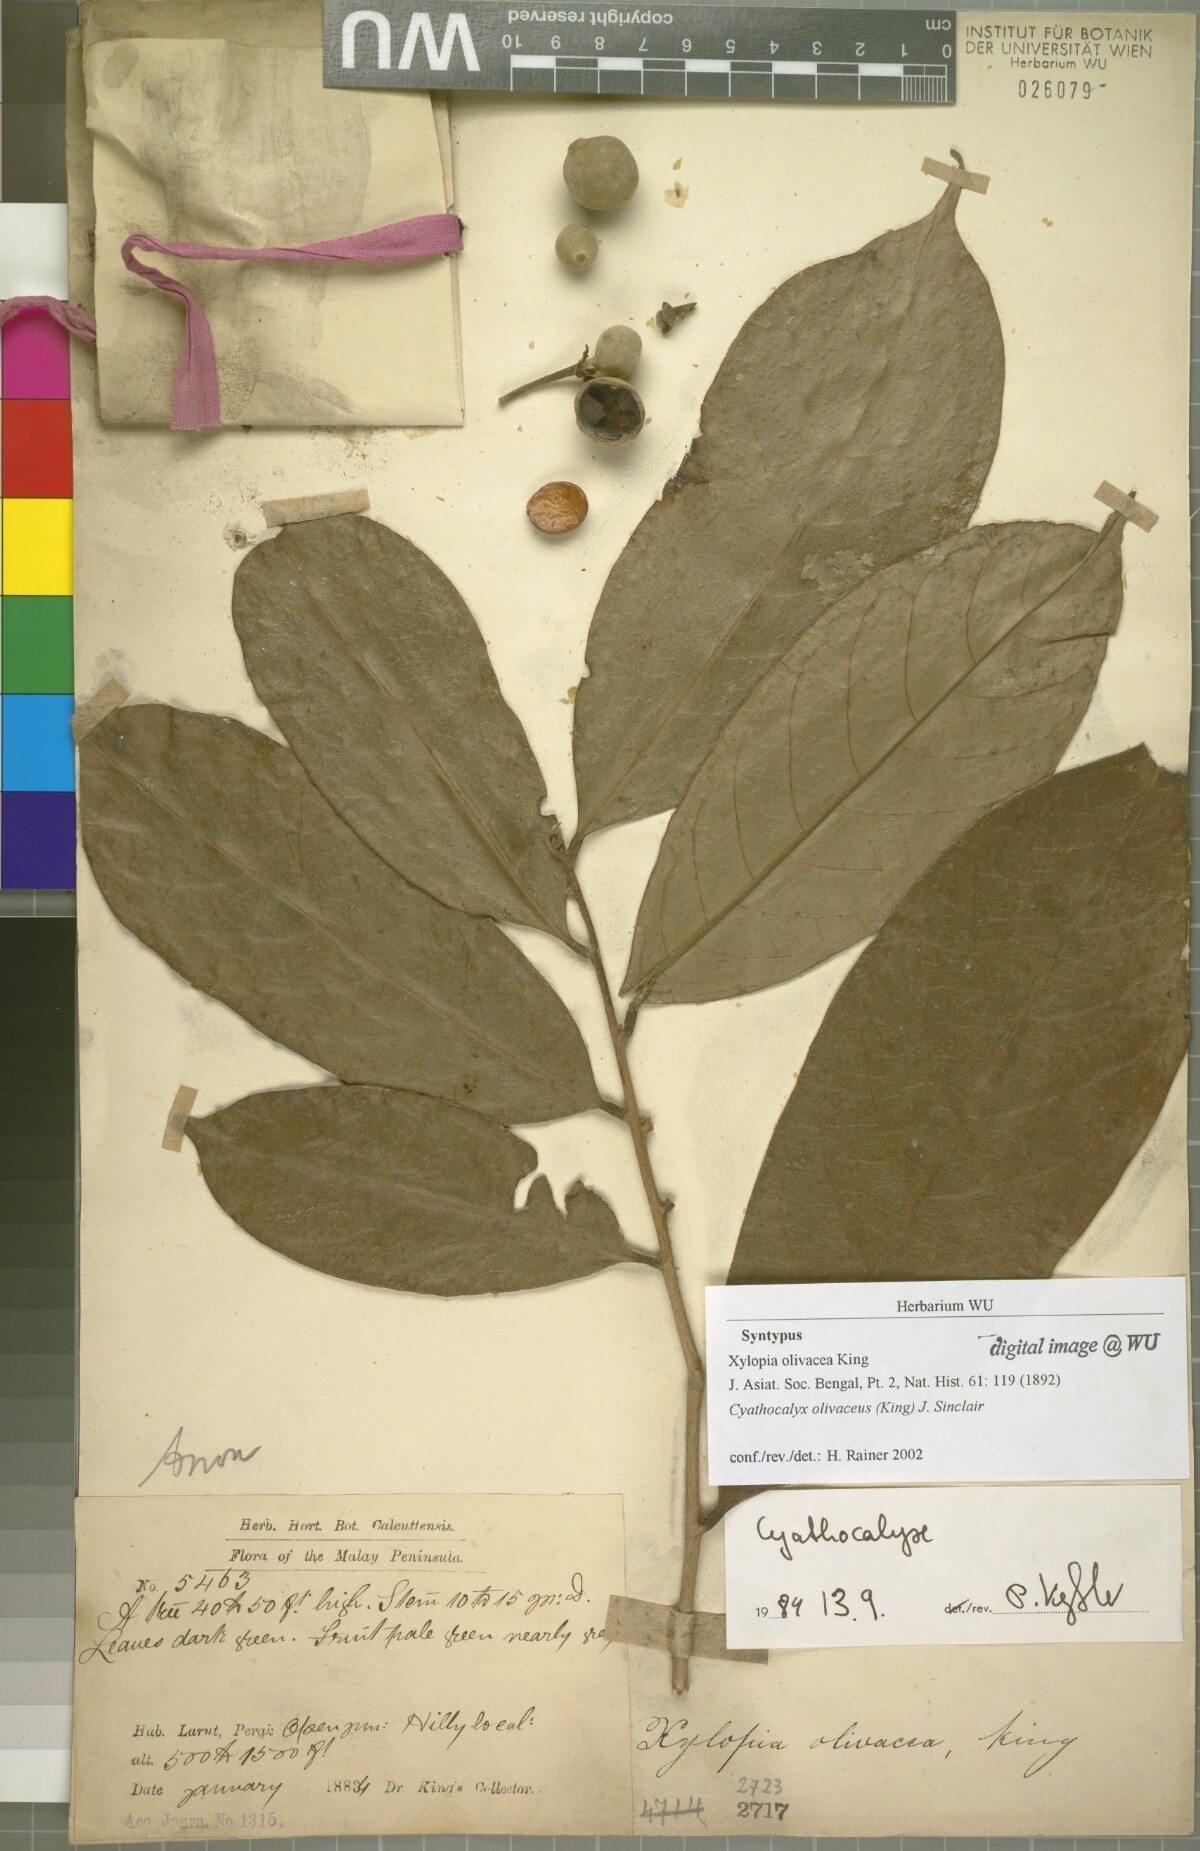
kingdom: Plantae
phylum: Tracheophyta
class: Magnoliopsida
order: Magnoliales
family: Annonaceae
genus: Drepananthus
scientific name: Drepananthus olivaceus
